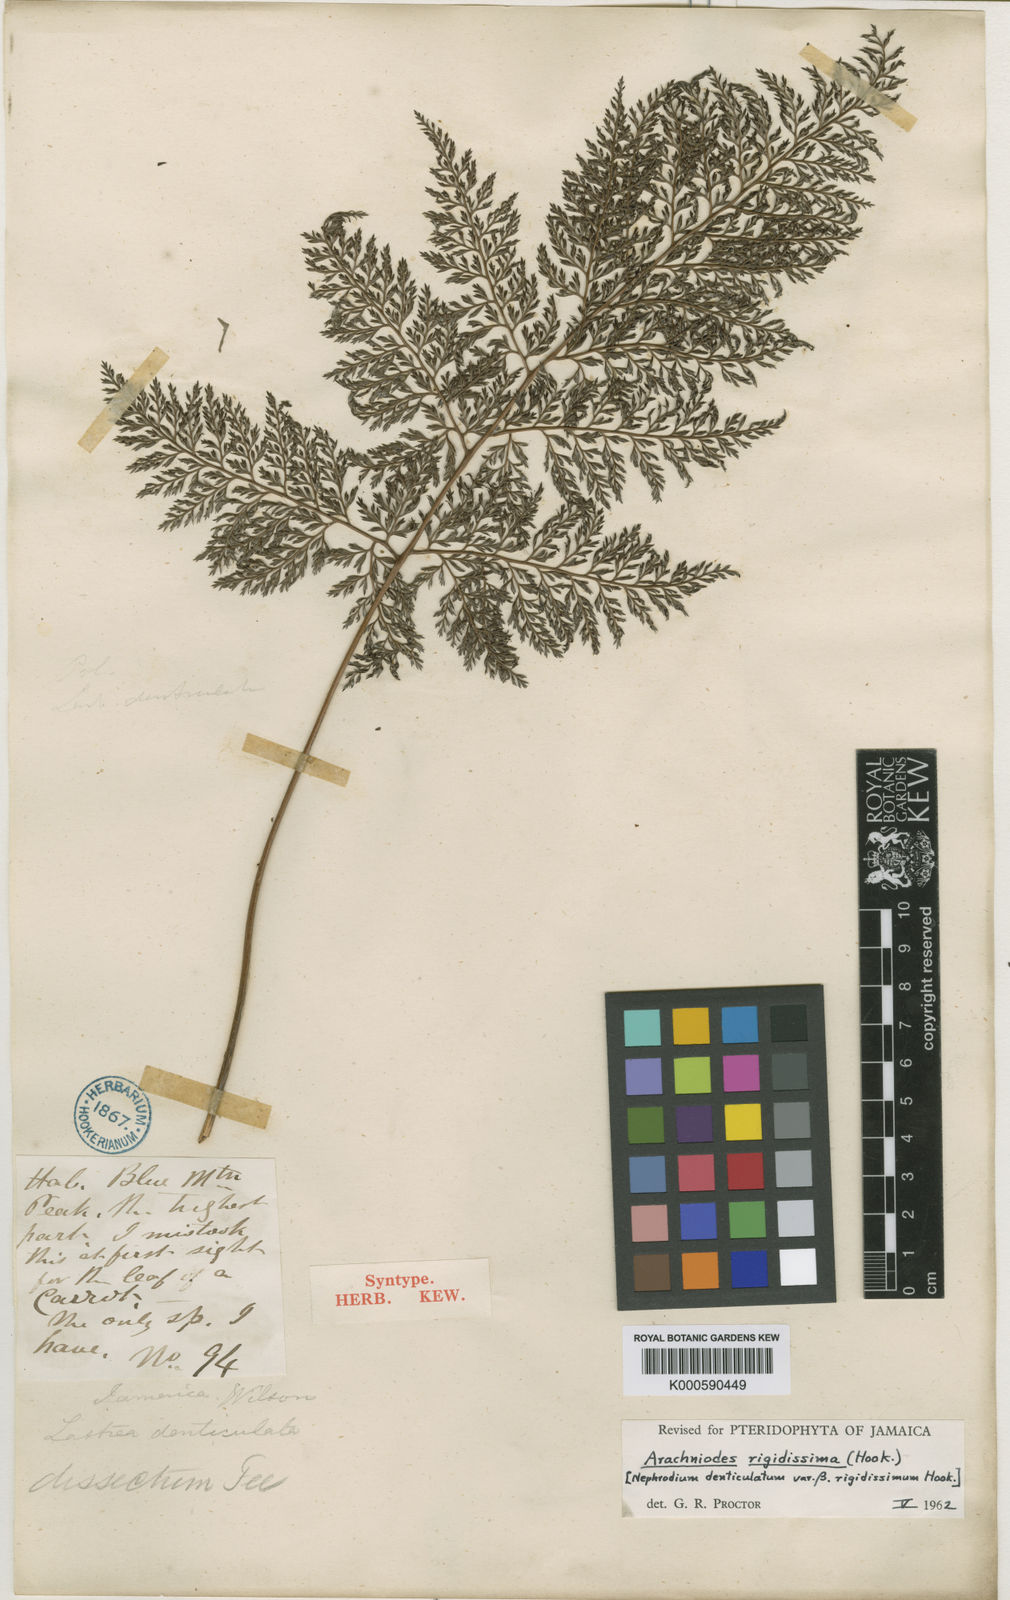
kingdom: Plantae
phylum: Tracheophyta
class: Polypodiopsida
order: Polypodiales
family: Dryopteridaceae
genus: Arachniodes
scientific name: Arachniodes
